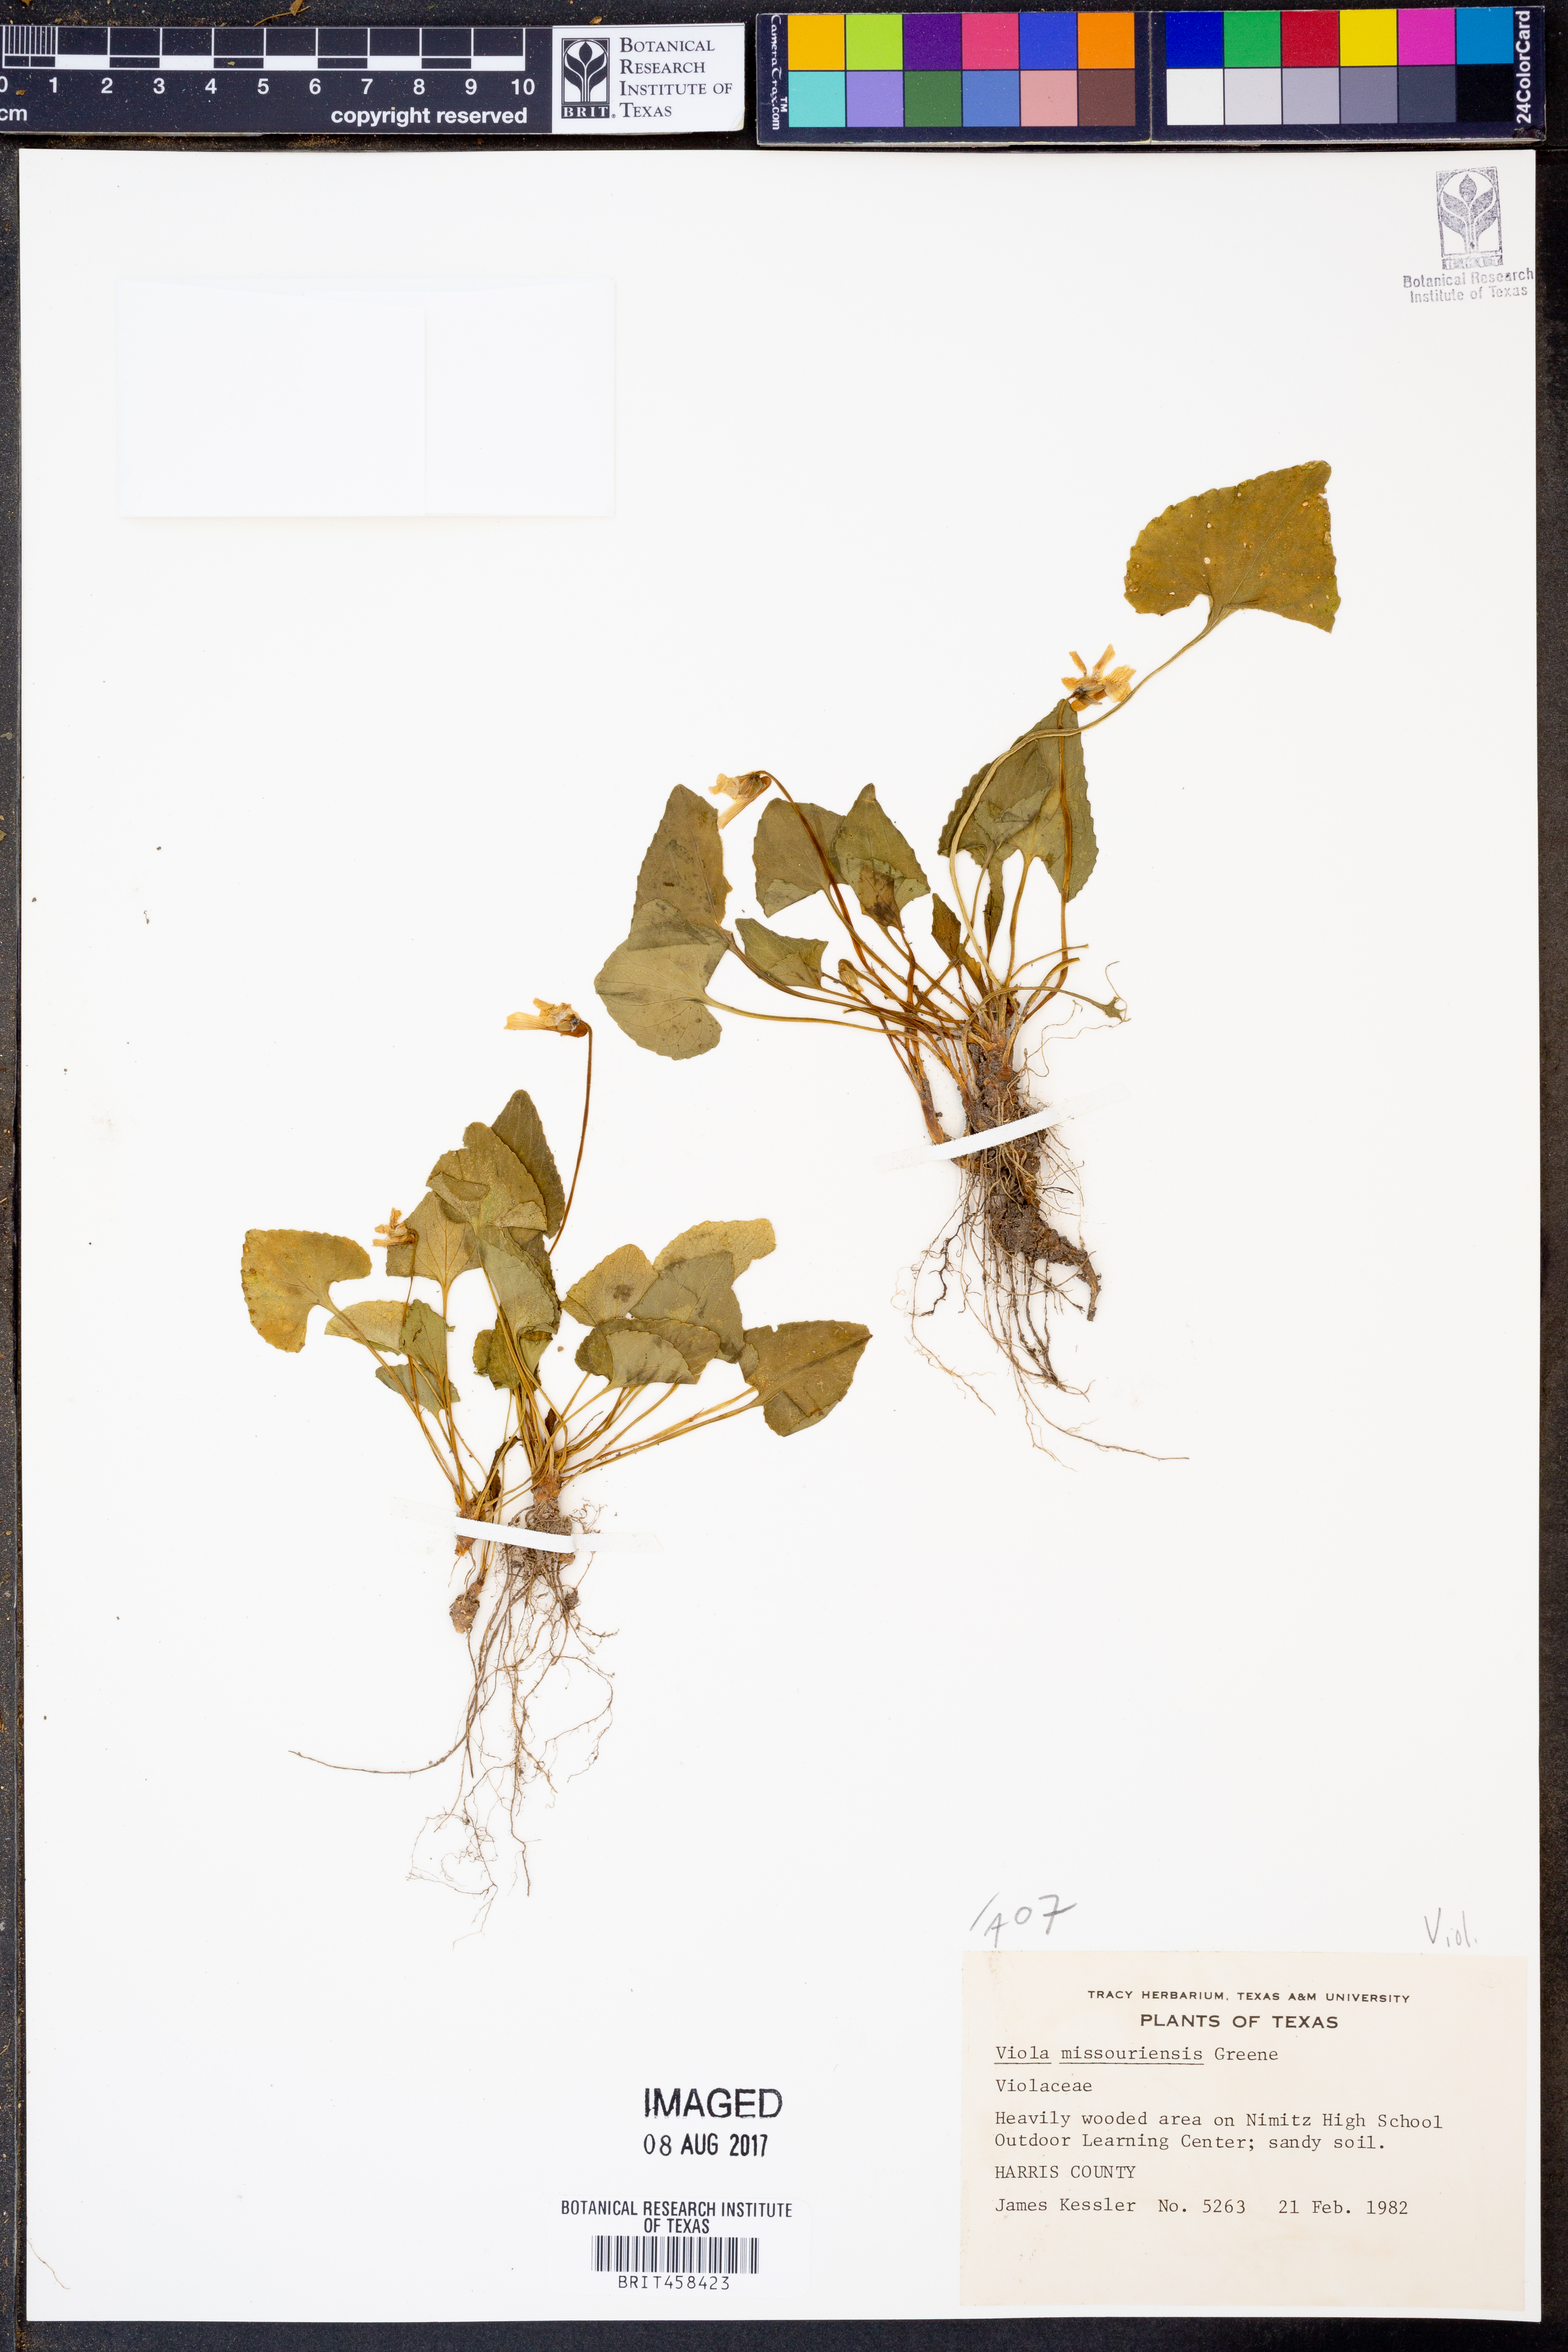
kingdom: Plantae
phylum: Tracheophyta
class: Magnoliopsida
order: Malpighiales
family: Violaceae
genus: Viola
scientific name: Viola missouriensis
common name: Missouri violet
